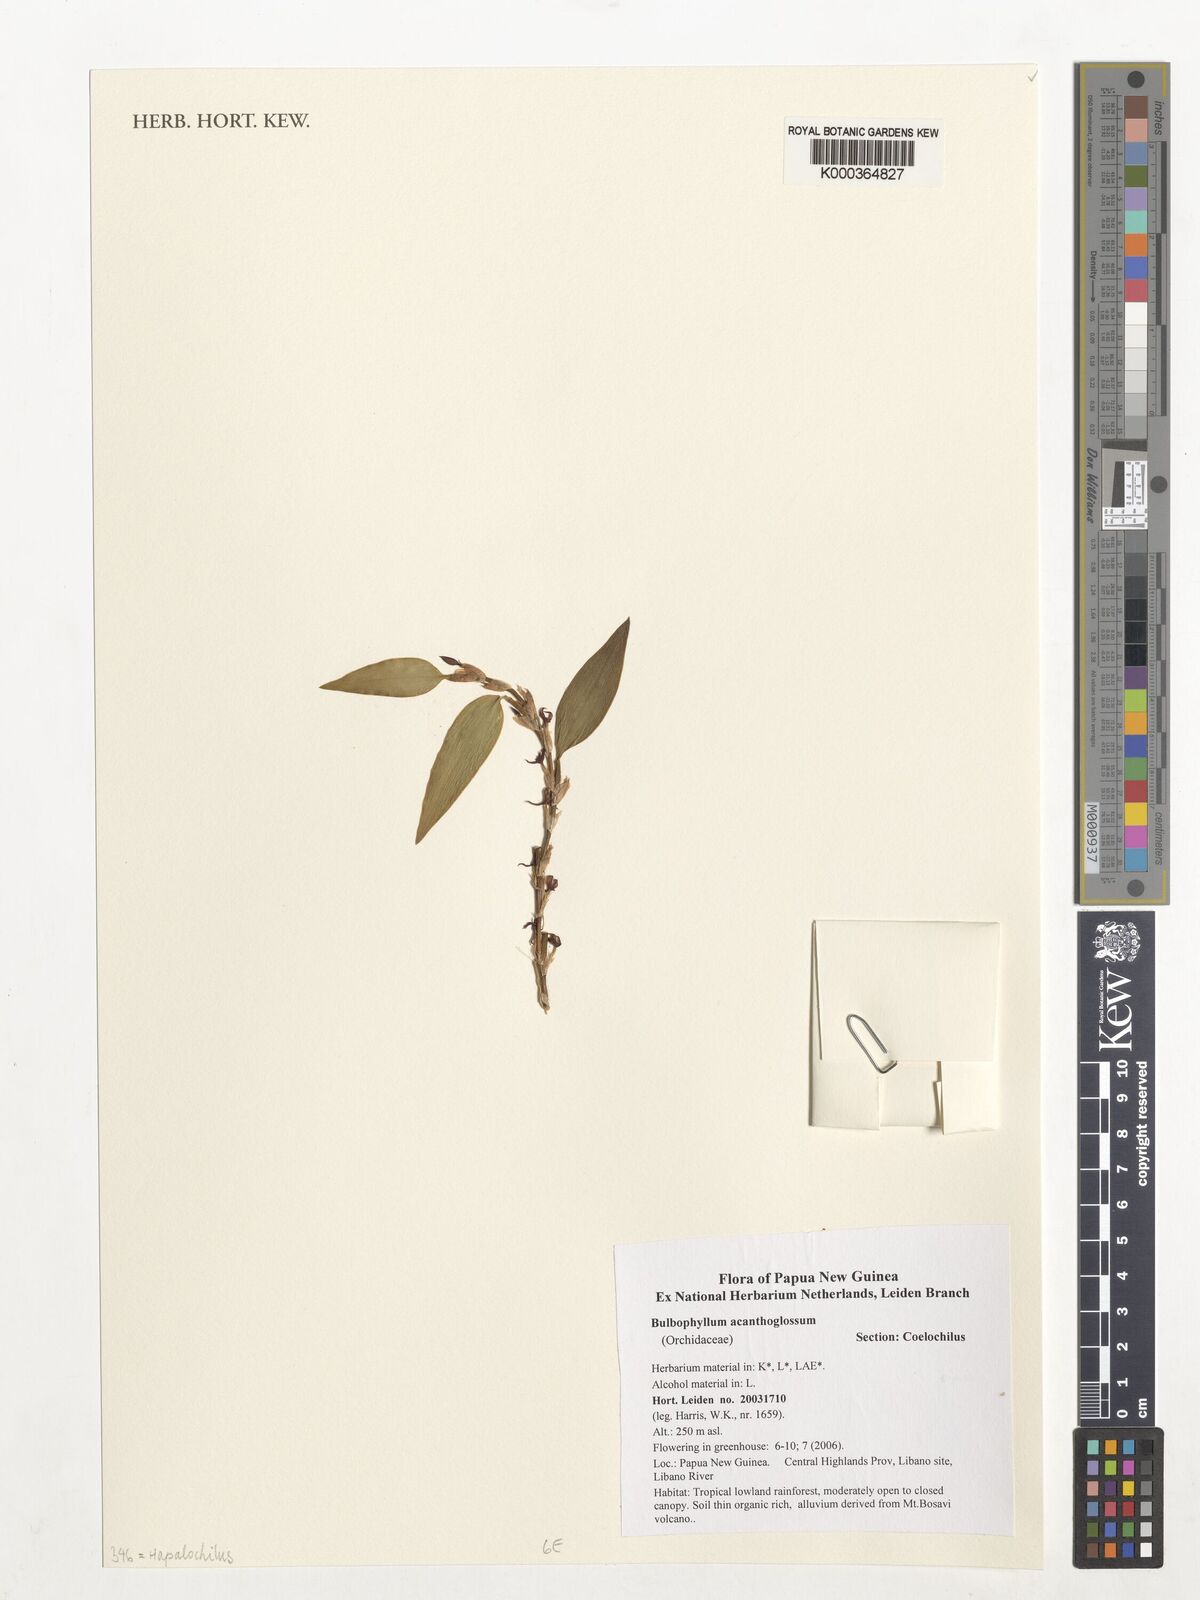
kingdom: Plantae
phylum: Tracheophyta
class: Liliopsida
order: Asparagales
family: Orchidaceae
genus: Bulbophyllum
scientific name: Bulbophyllum acanthoglossum
